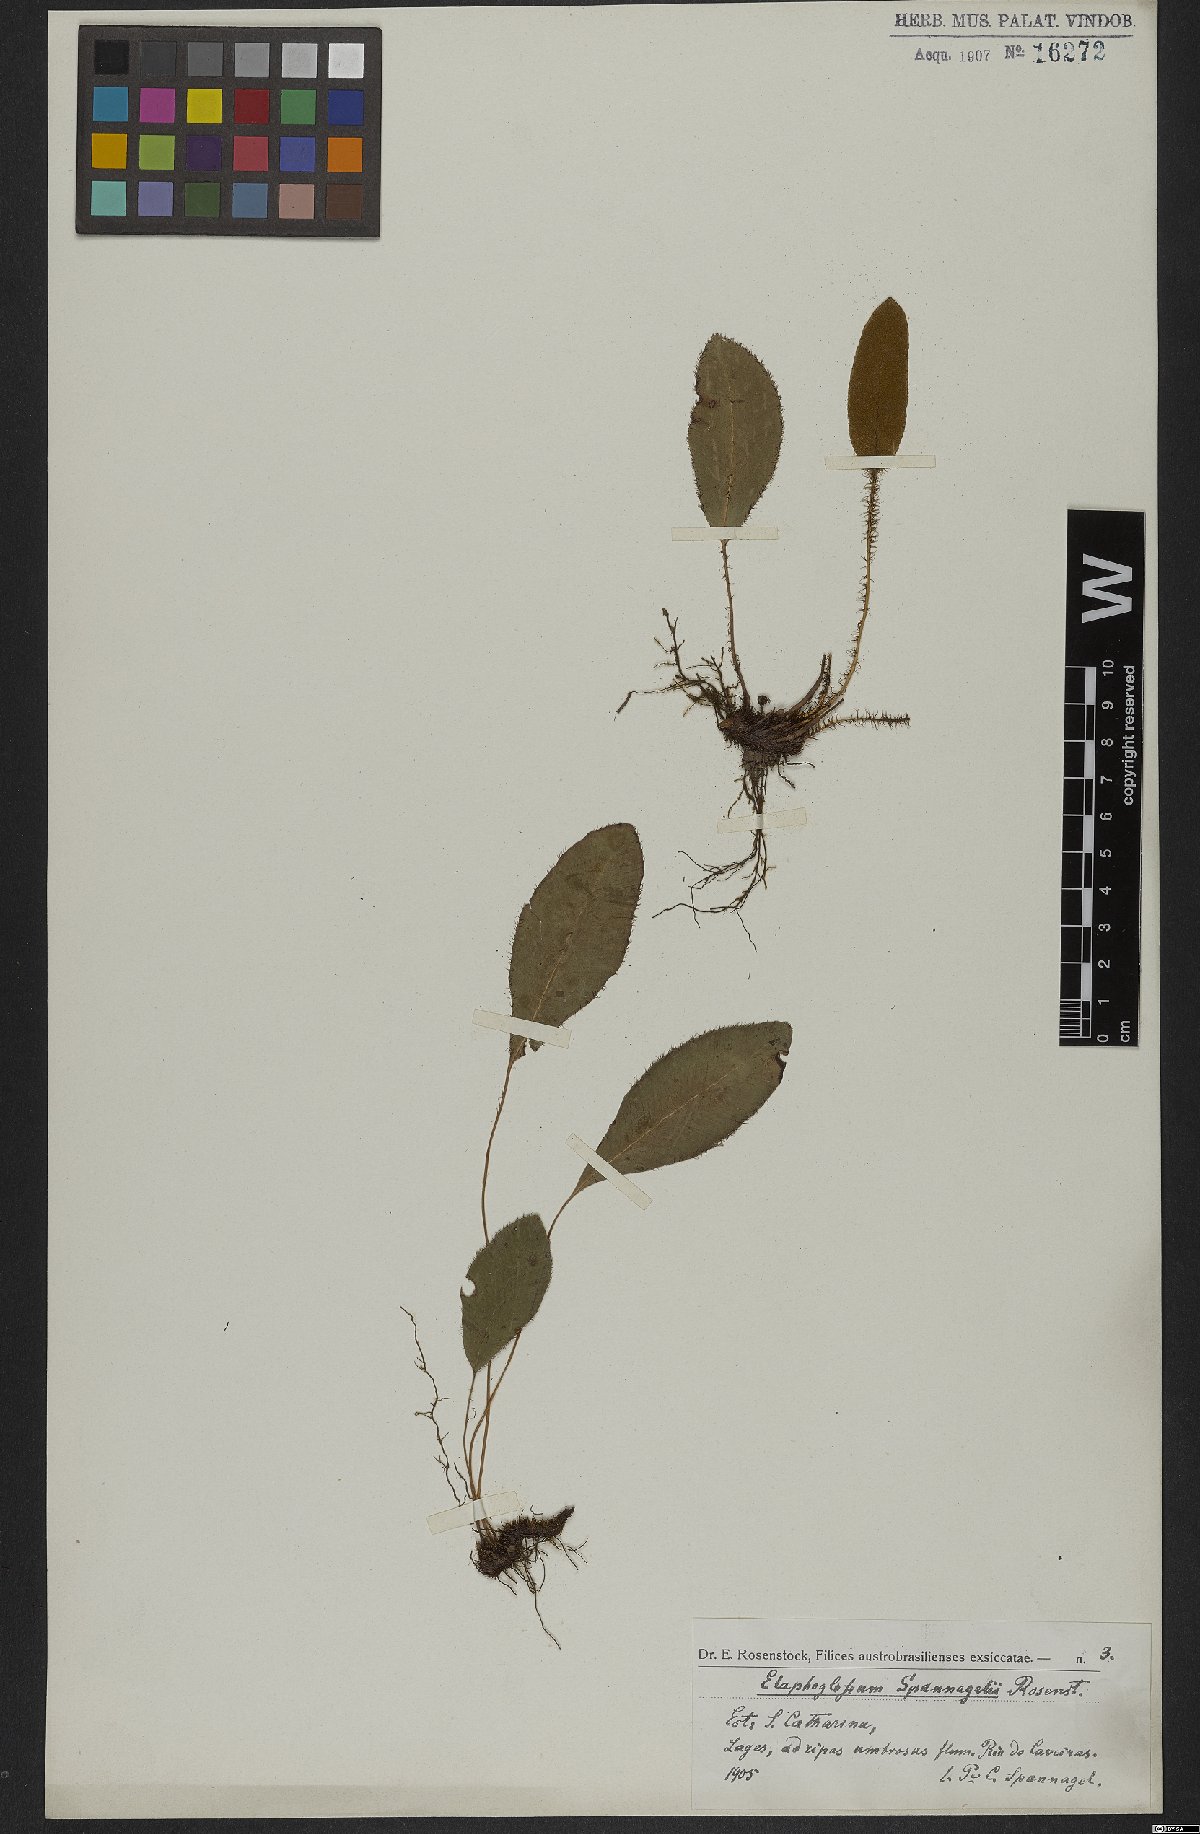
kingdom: Plantae
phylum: Tracheophyta
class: Polypodiopsida
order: Polypodiales
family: Dryopteridaceae
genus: Elaphoglossum
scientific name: Elaphoglossum ulei
